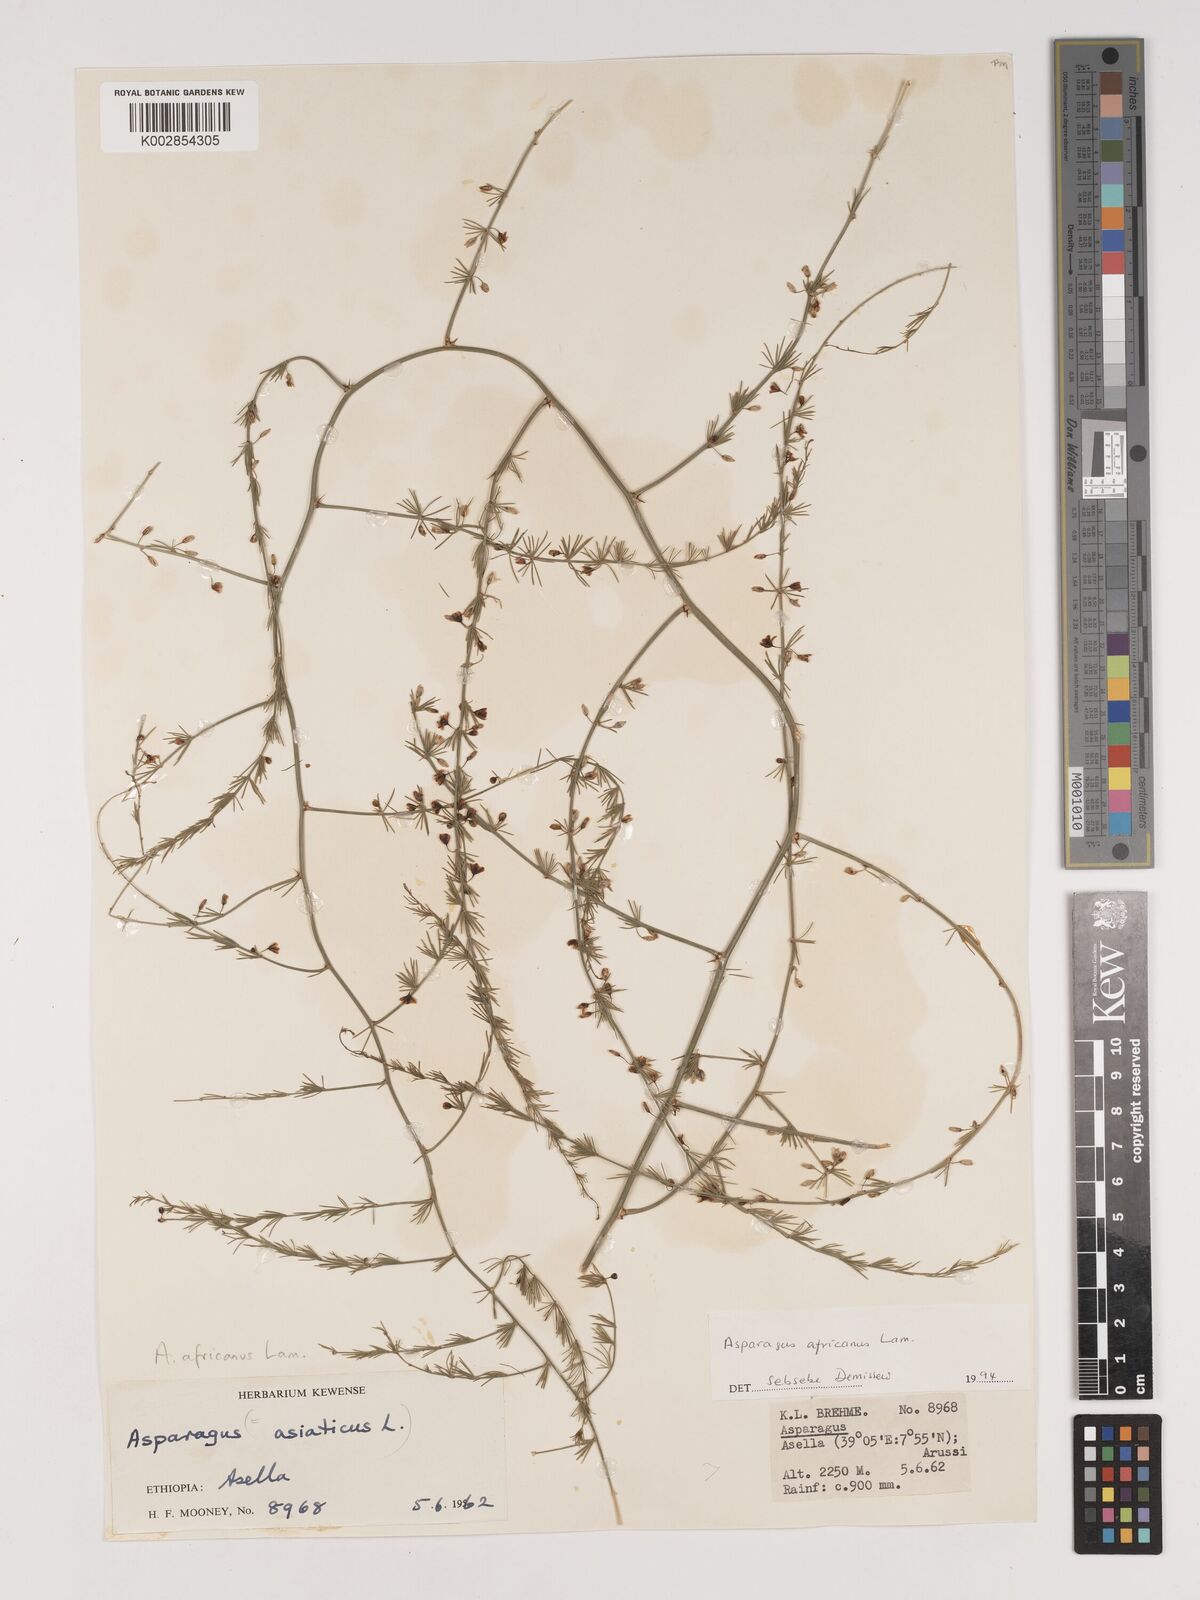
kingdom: Plantae
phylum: Tracheophyta
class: Liliopsida
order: Asparagales
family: Asparagaceae
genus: Asparagus
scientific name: Asparagus africanus
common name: Asparagus-fern
